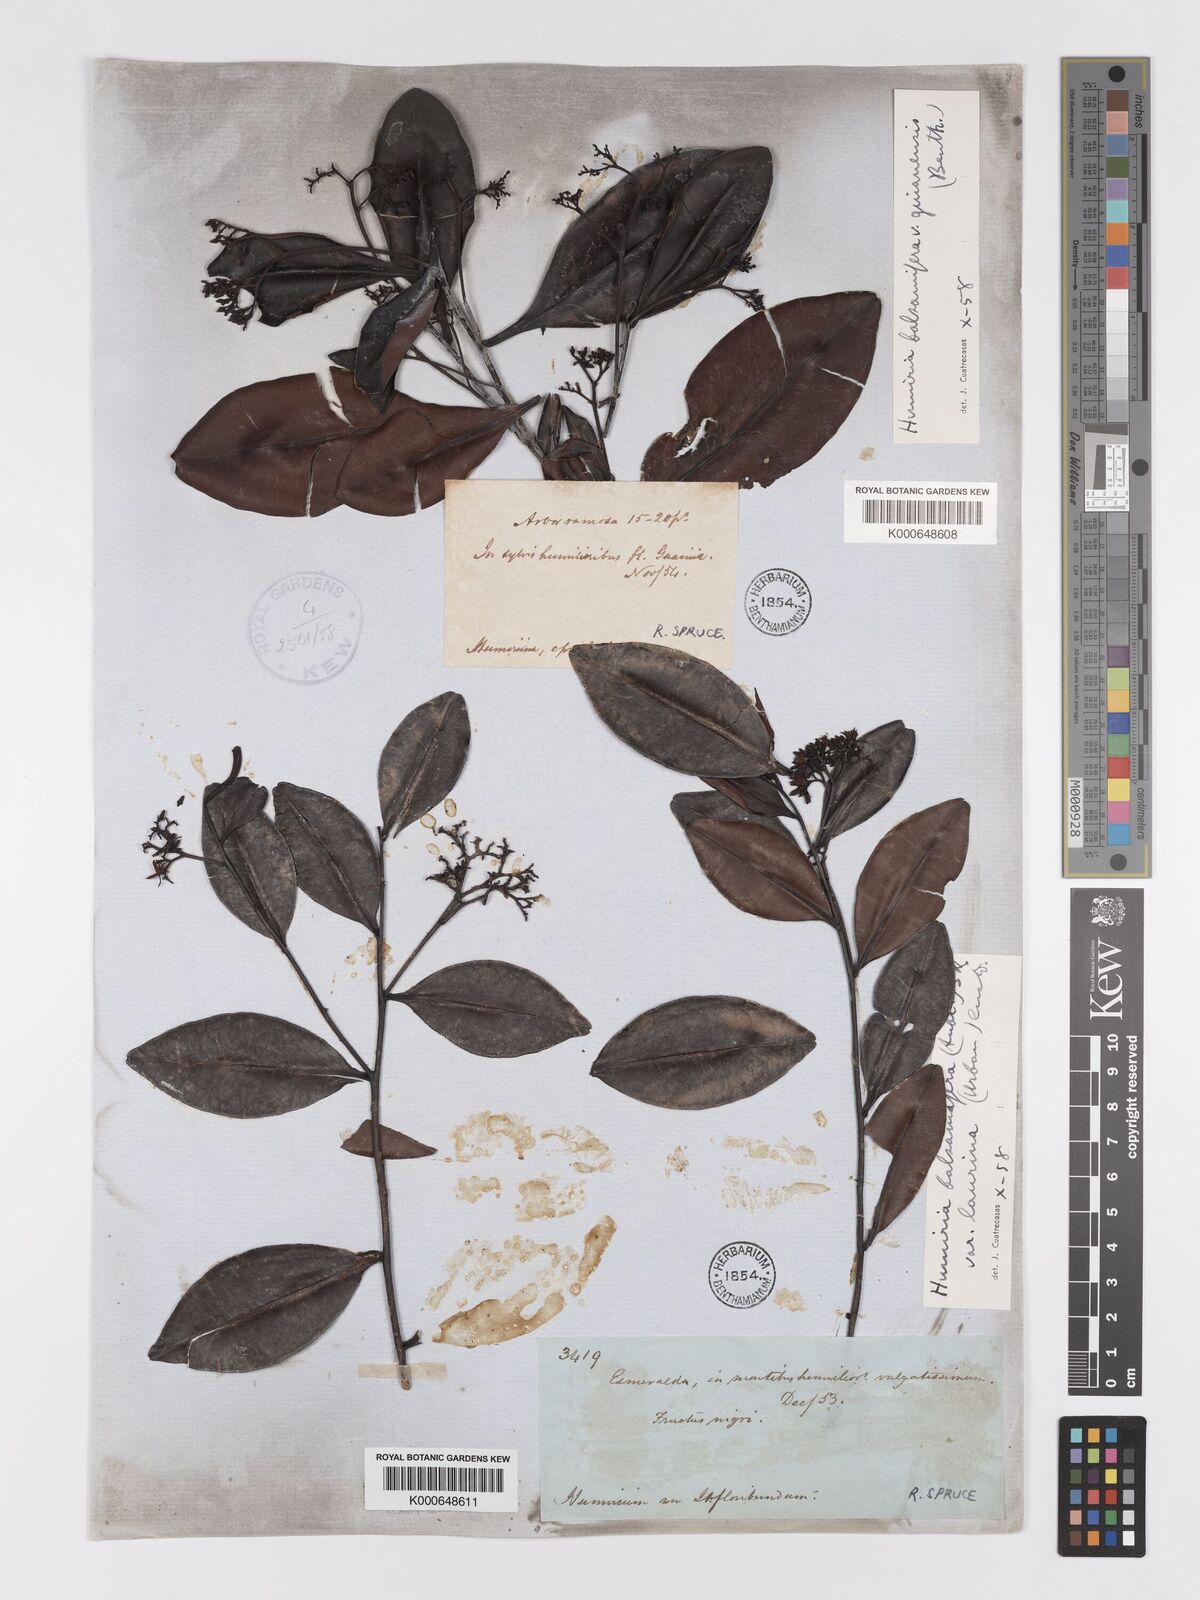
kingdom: Plantae
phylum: Tracheophyta
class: Magnoliopsida
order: Malpighiales
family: Humiriaceae
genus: Humiria
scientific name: Humiria balsamifera
